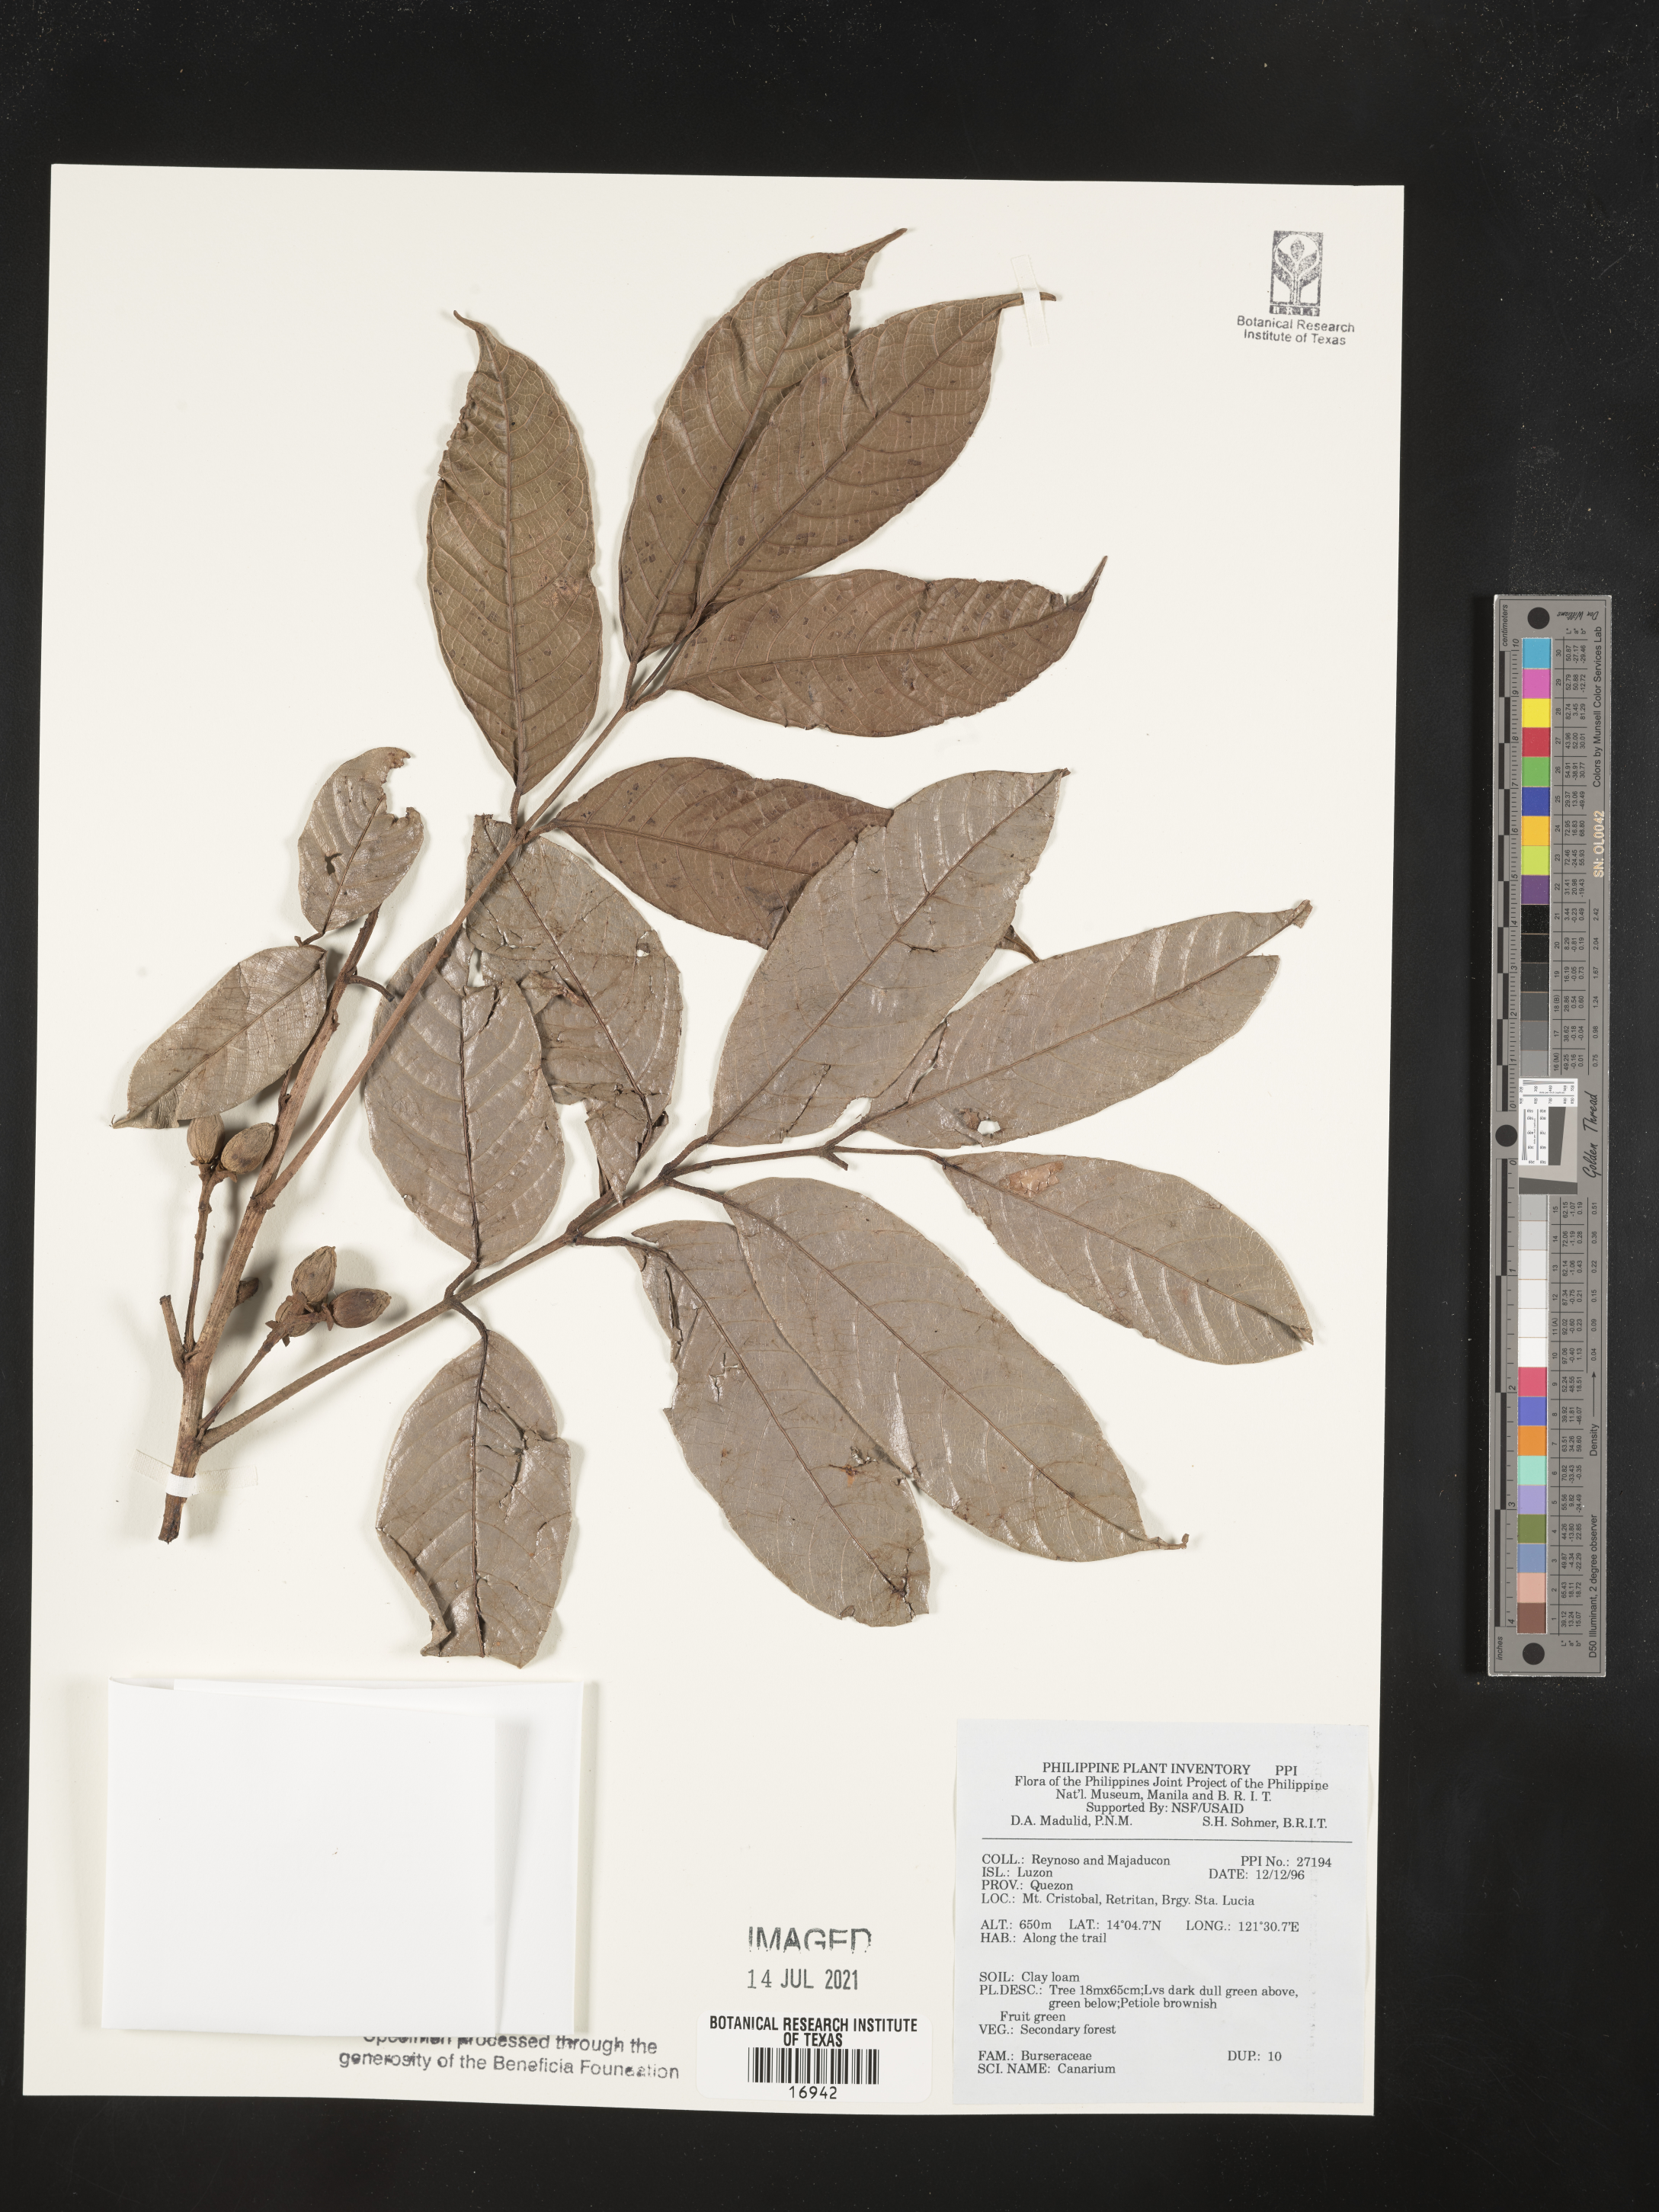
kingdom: Plantae
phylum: Tracheophyta
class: Magnoliopsida
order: Sapindales
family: Burseraceae
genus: Canarium
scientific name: Canarium
